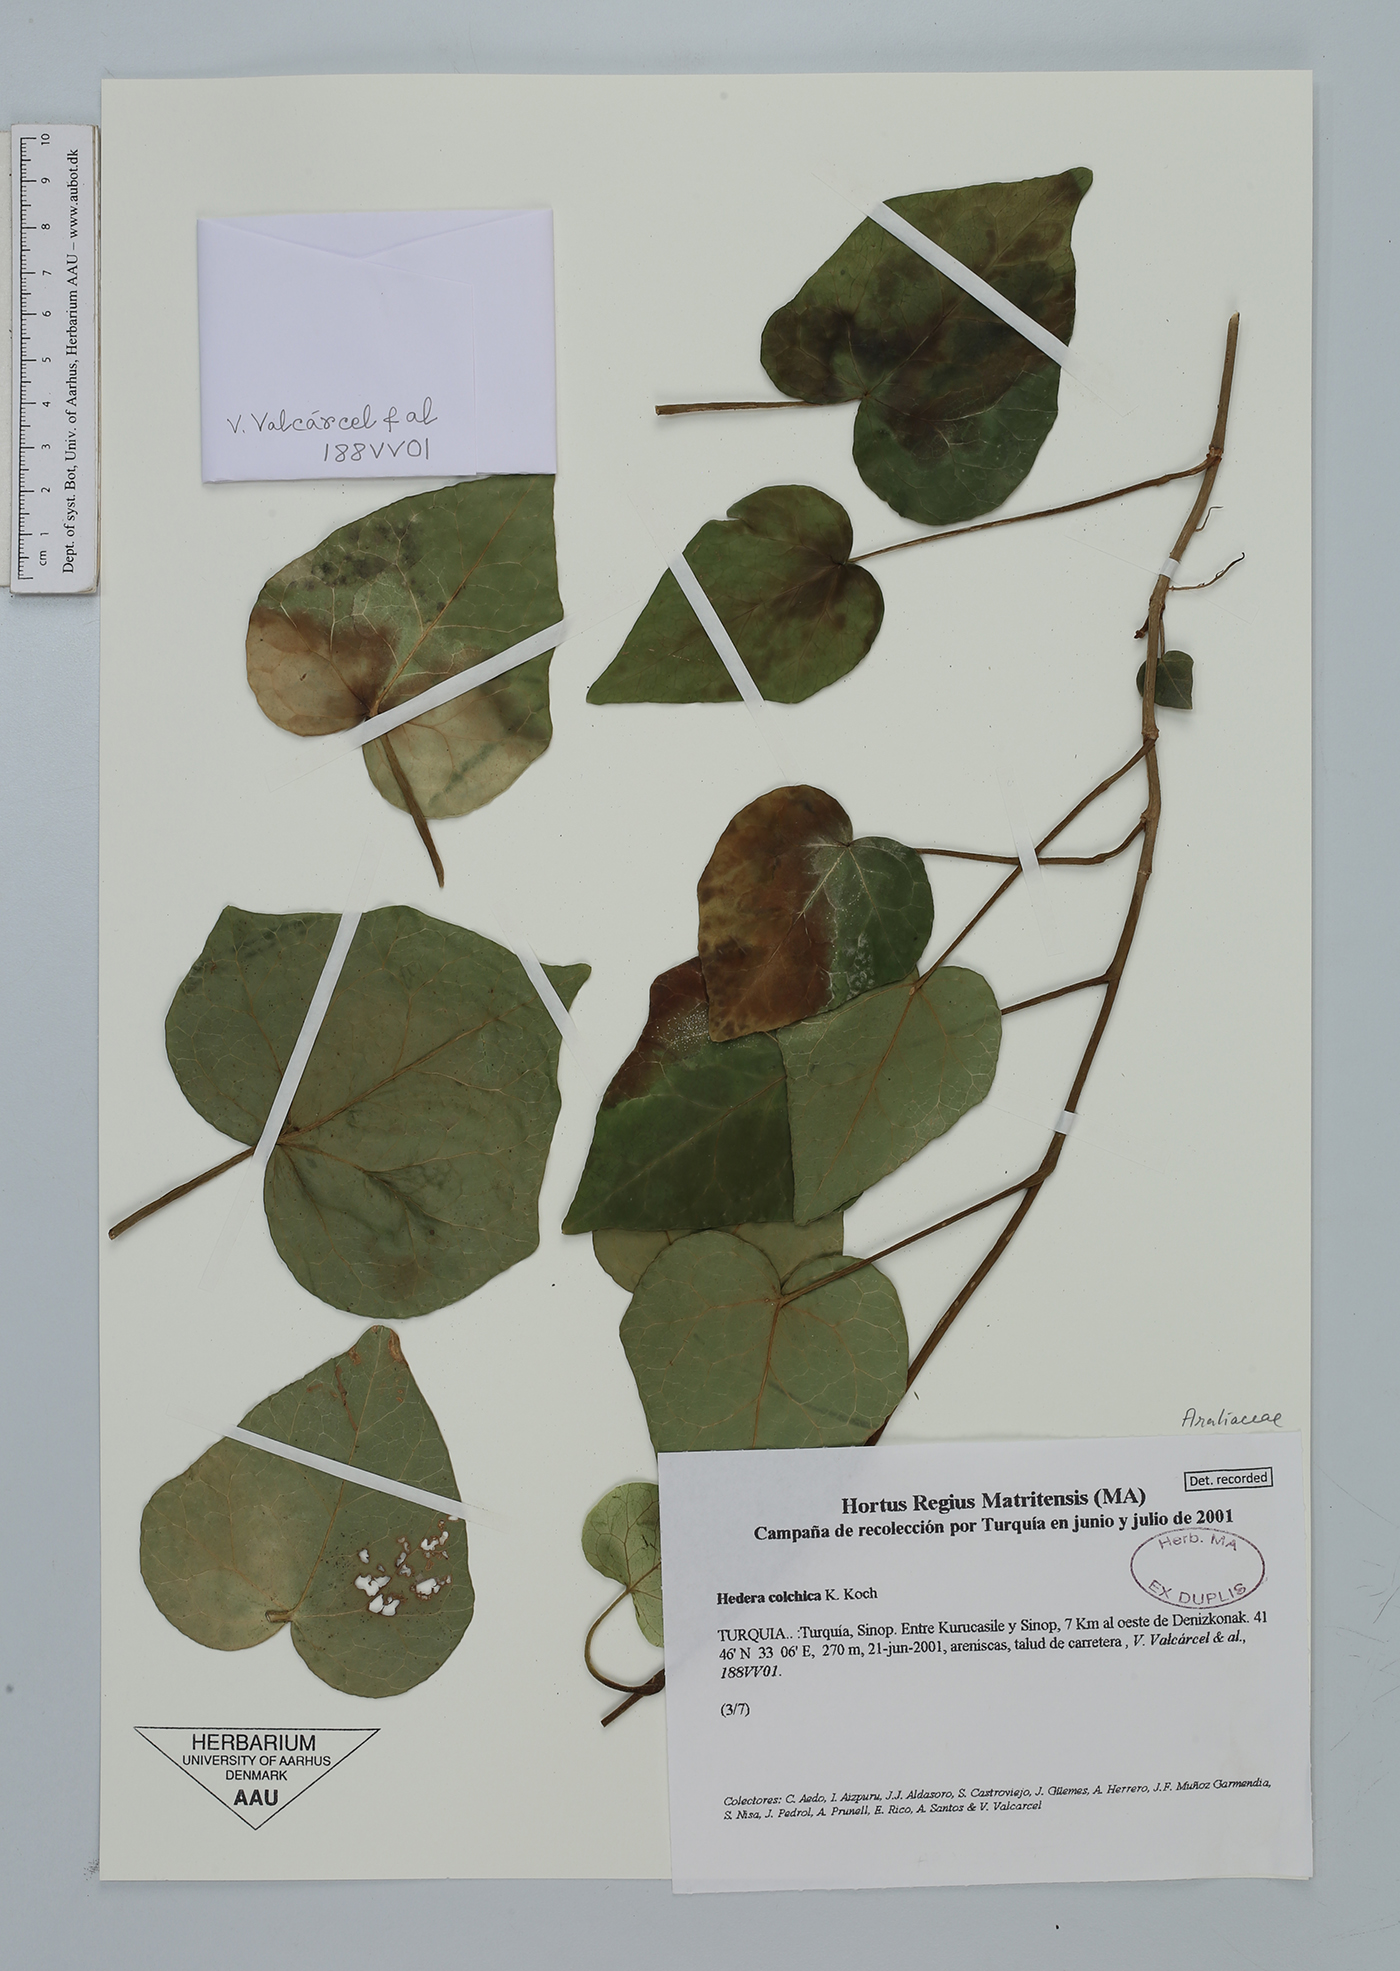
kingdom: Plantae
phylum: Tracheophyta
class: Magnoliopsida
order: Apiales
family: Araliaceae
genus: Hedera
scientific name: Hedera colchica
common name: Persian ivy
